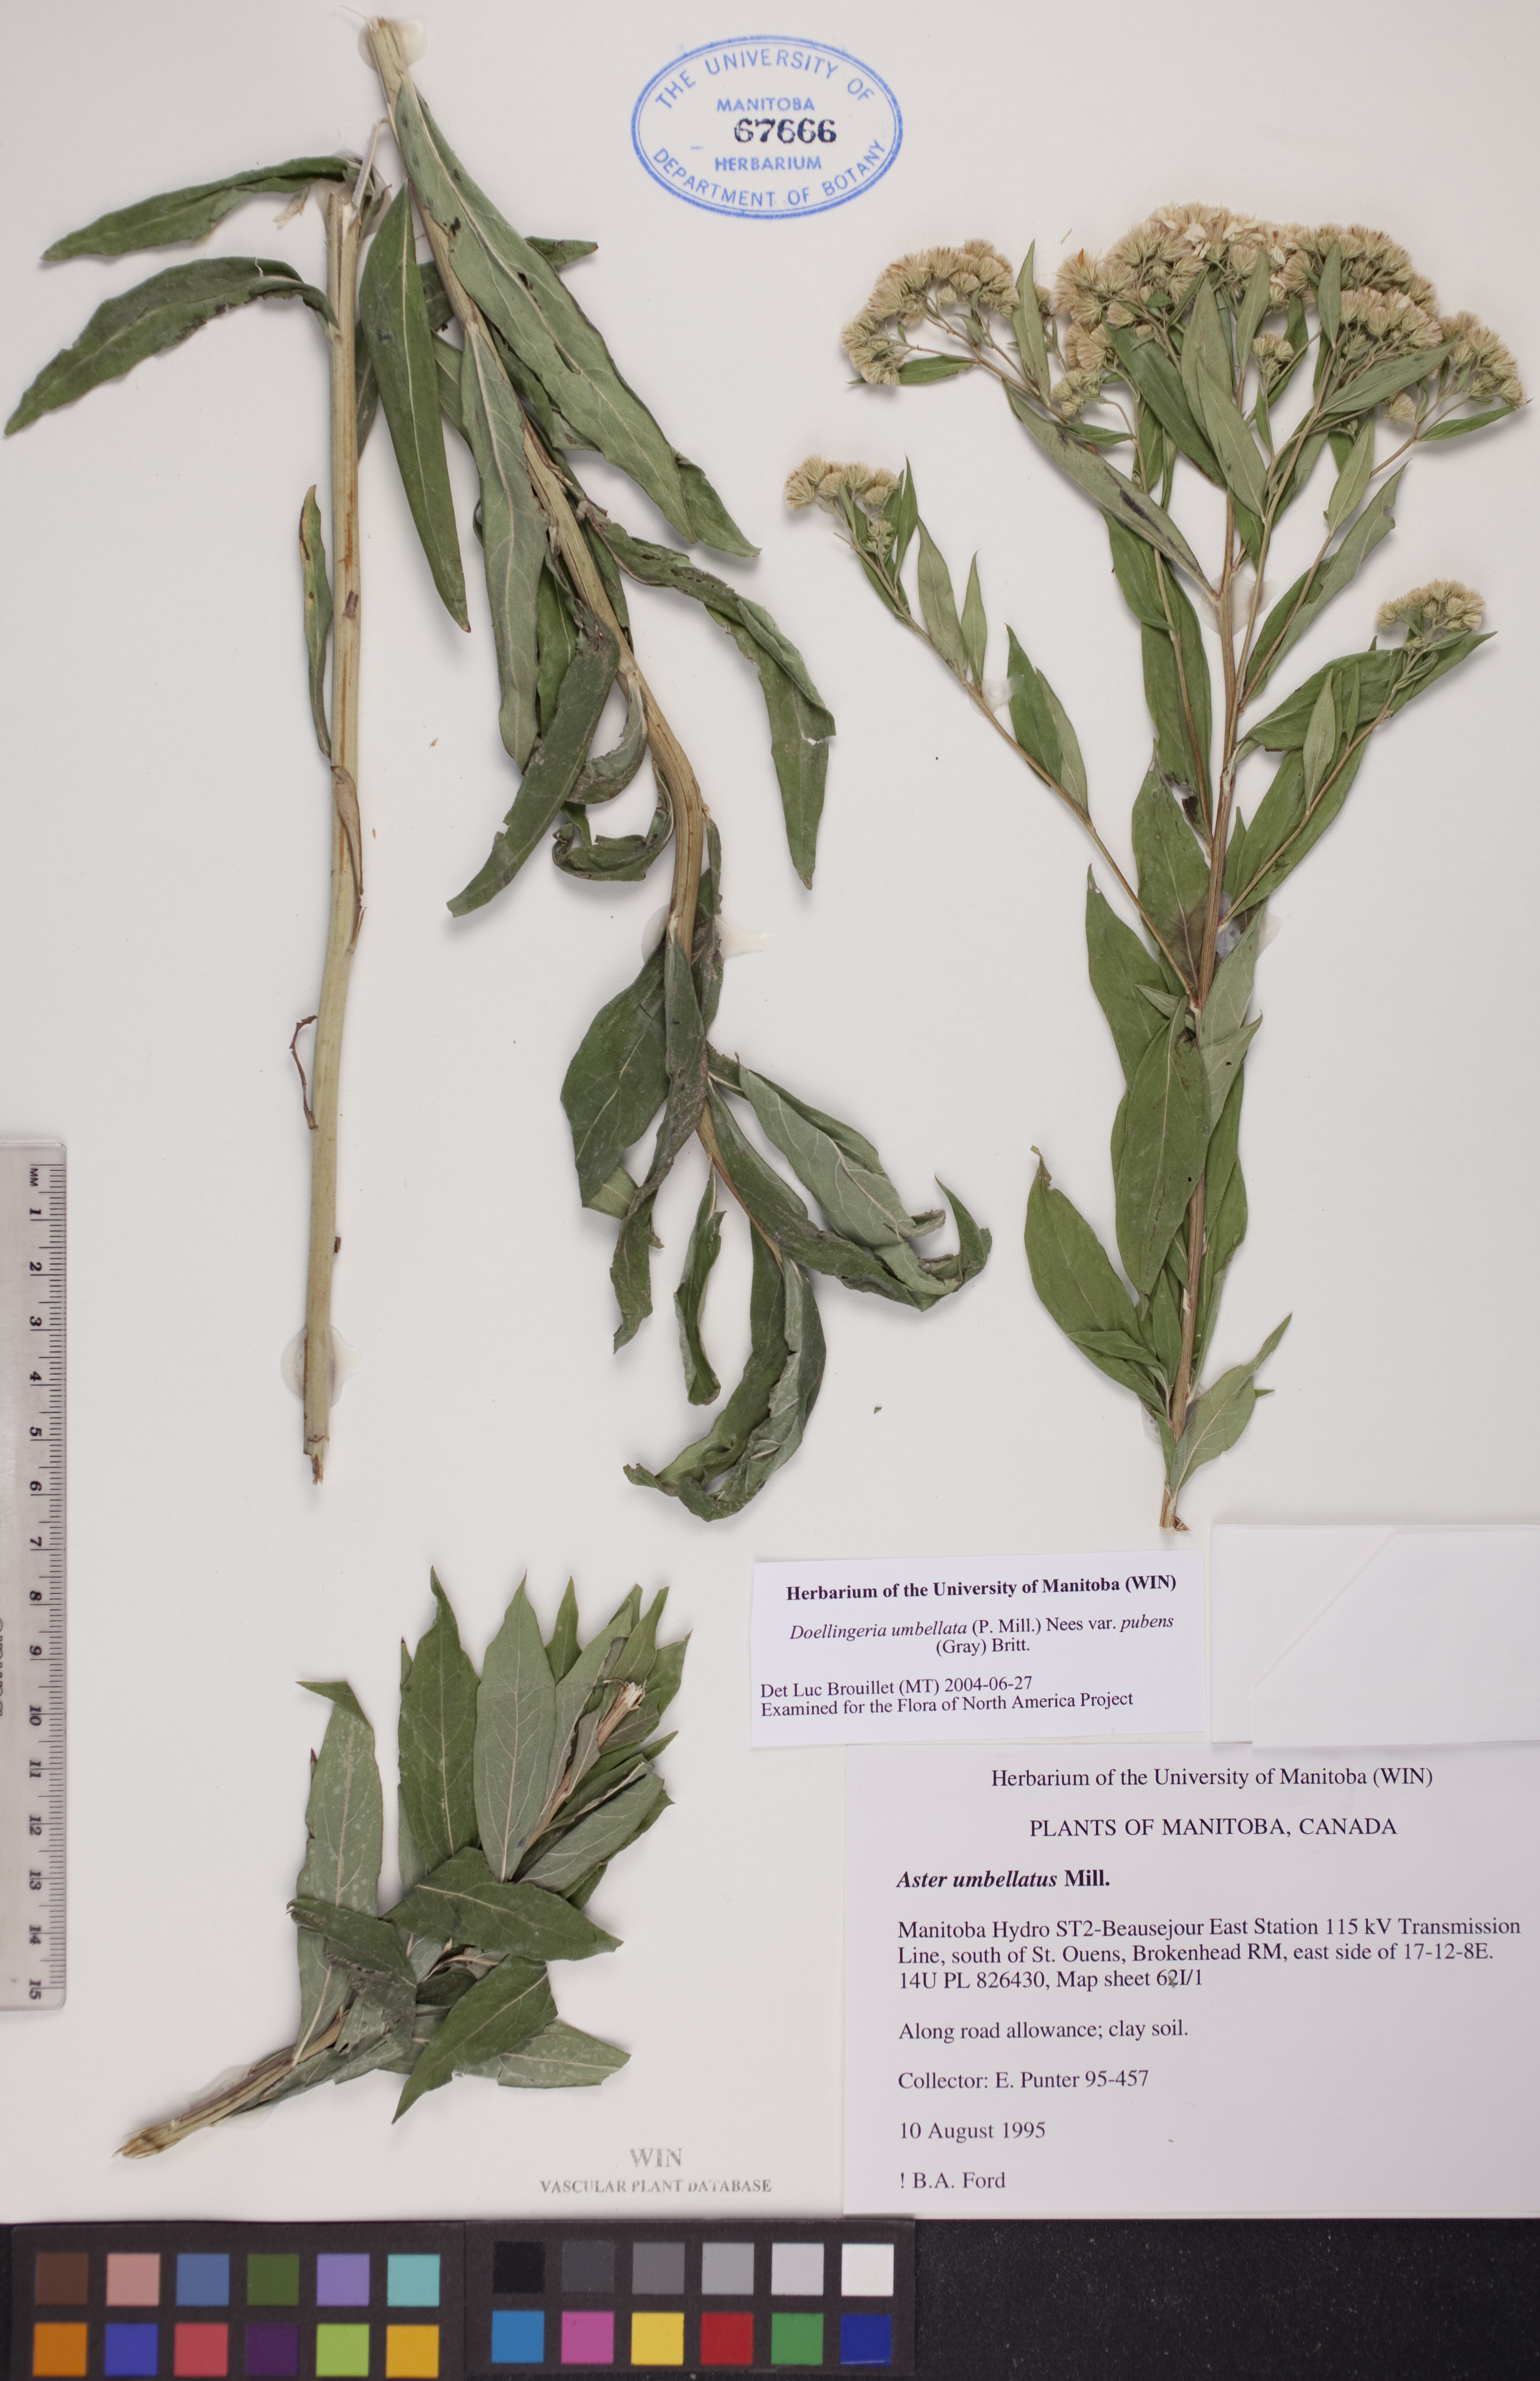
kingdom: Plantae
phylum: Tracheophyta
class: Magnoliopsida
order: Asterales
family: Asteraceae
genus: Doellingeria
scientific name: Doellingeria umbellata
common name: Flat-top white aster
